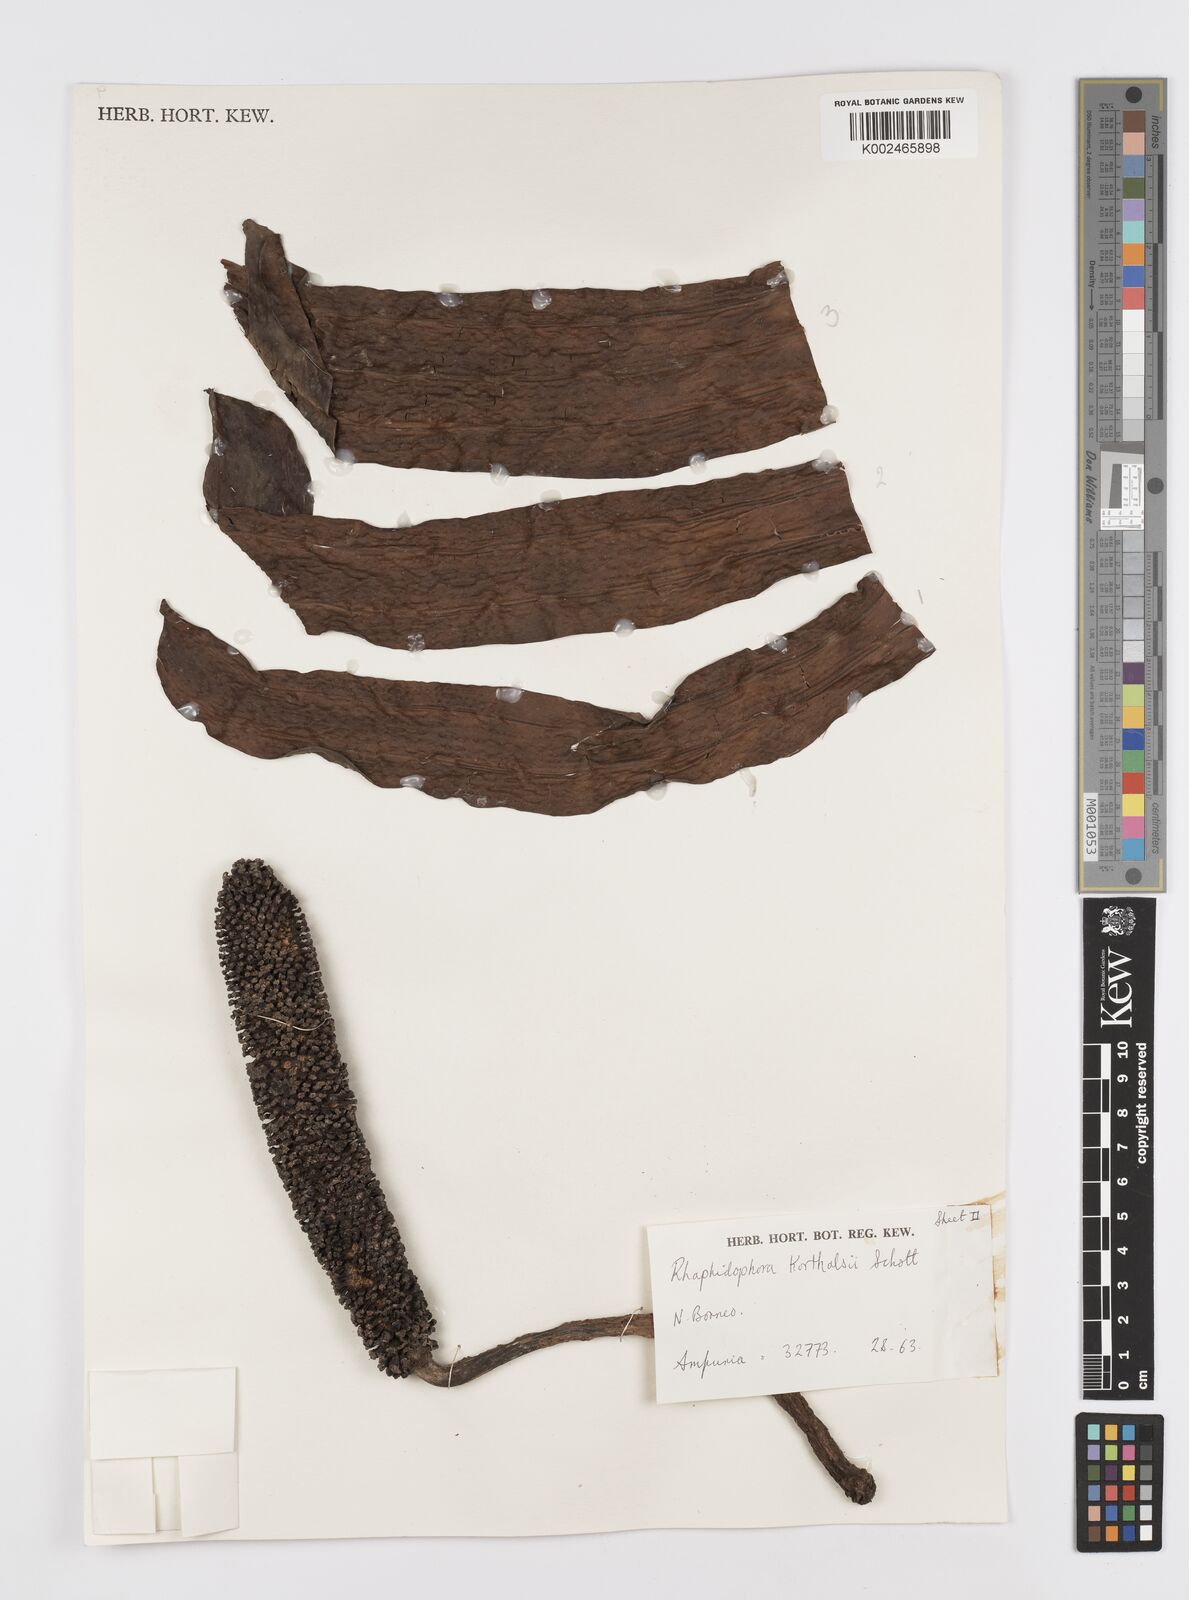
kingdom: Plantae
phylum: Tracheophyta
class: Liliopsida
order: Alismatales
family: Araceae
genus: Rhaphidophora
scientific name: Rhaphidophora korthalsii
